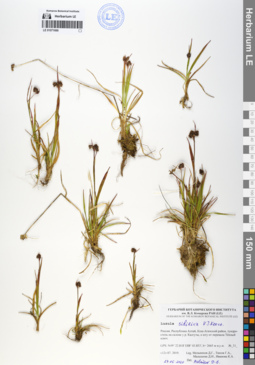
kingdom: Plantae
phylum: Tracheophyta
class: Liliopsida
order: Poales
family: Juncaceae
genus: Luzula
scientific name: Luzula multiflora
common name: Heath wood-rush
